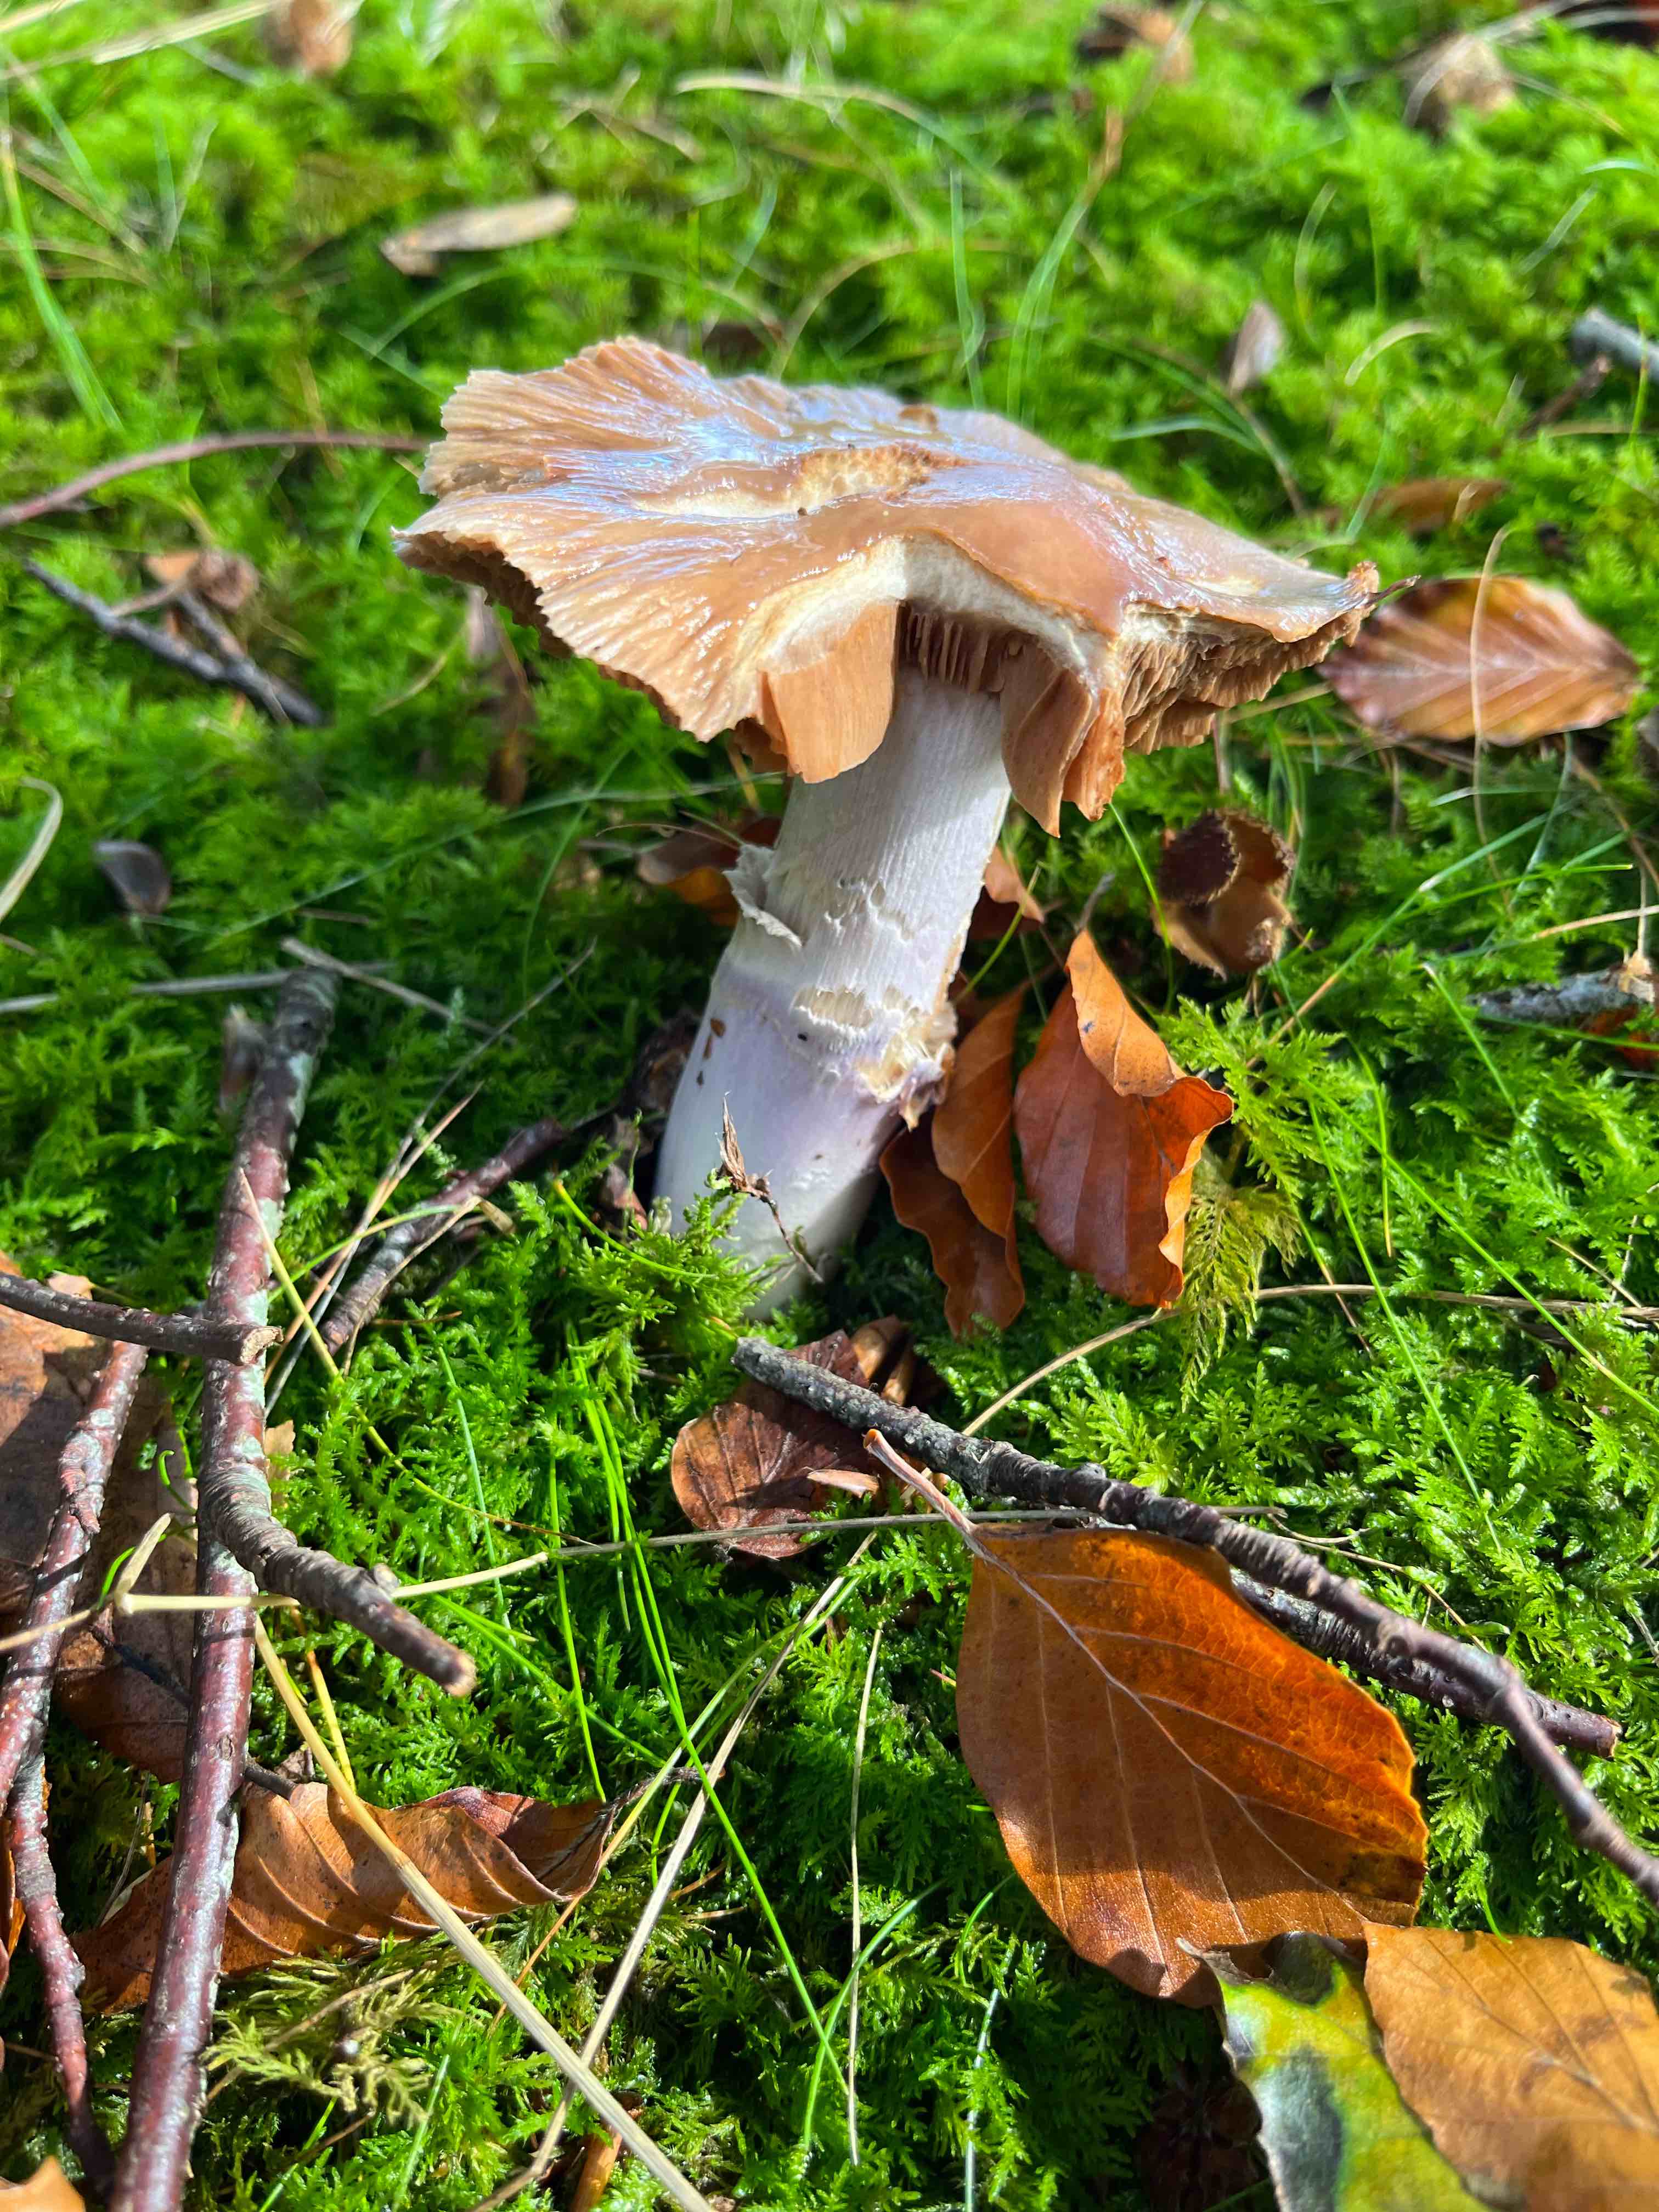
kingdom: Fungi
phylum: Basidiomycota
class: Agaricomycetes
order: Agaricales
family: Cortinariaceae
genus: Cortinarius
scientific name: Cortinarius elatior
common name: høj slørhat
